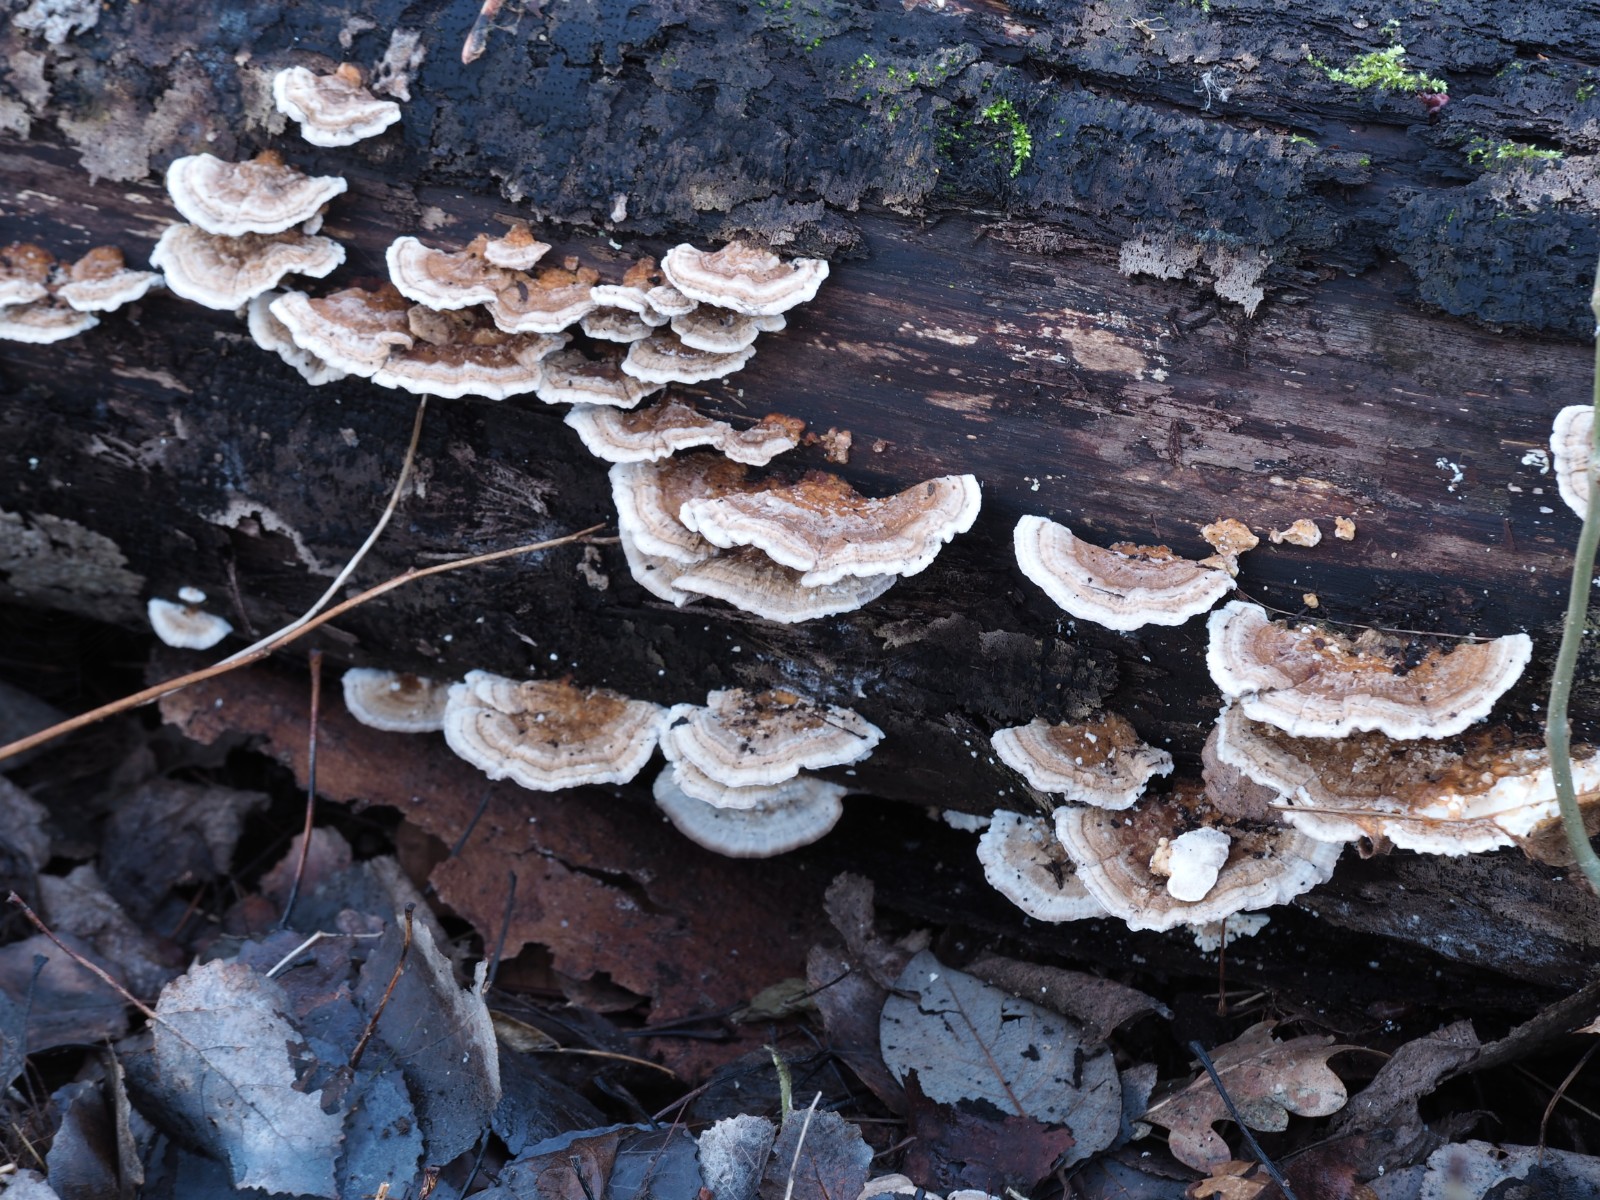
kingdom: Fungi
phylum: Basidiomycota
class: Agaricomycetes
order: Polyporales
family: Polyporaceae
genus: Trametes
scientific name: Trametes ochracea
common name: bæltet læderporesvamp
